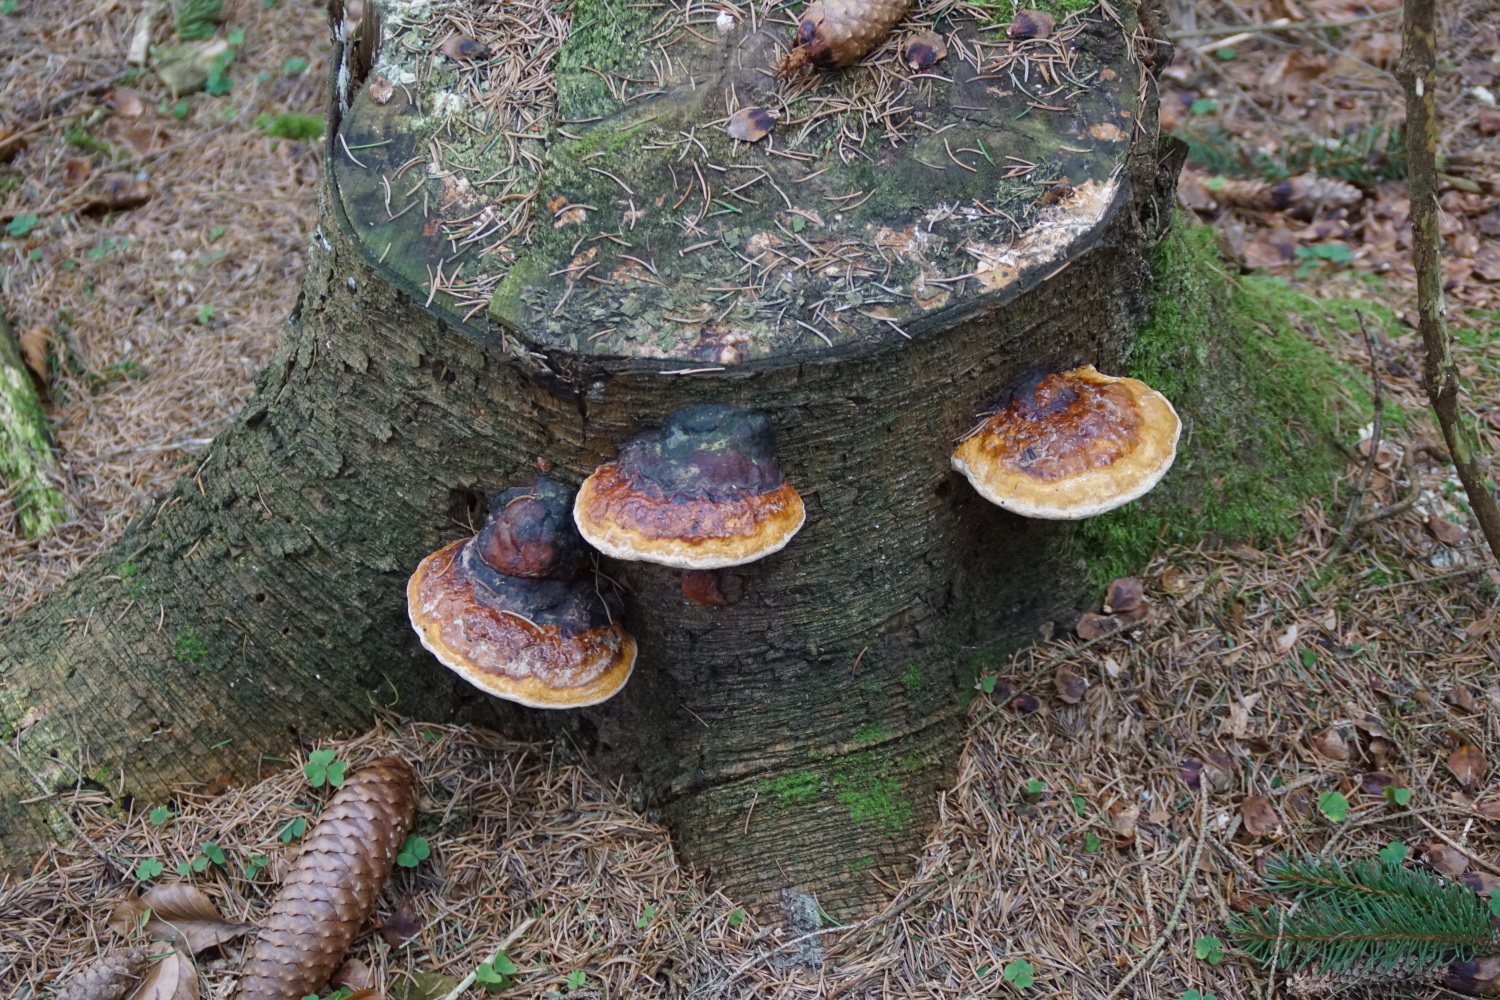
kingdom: Fungi
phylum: Basidiomycota
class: Agaricomycetes
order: Polyporales
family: Fomitopsidaceae
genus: Fomitopsis
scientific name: Fomitopsis pinicola
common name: randbæltet hovporesvamp
